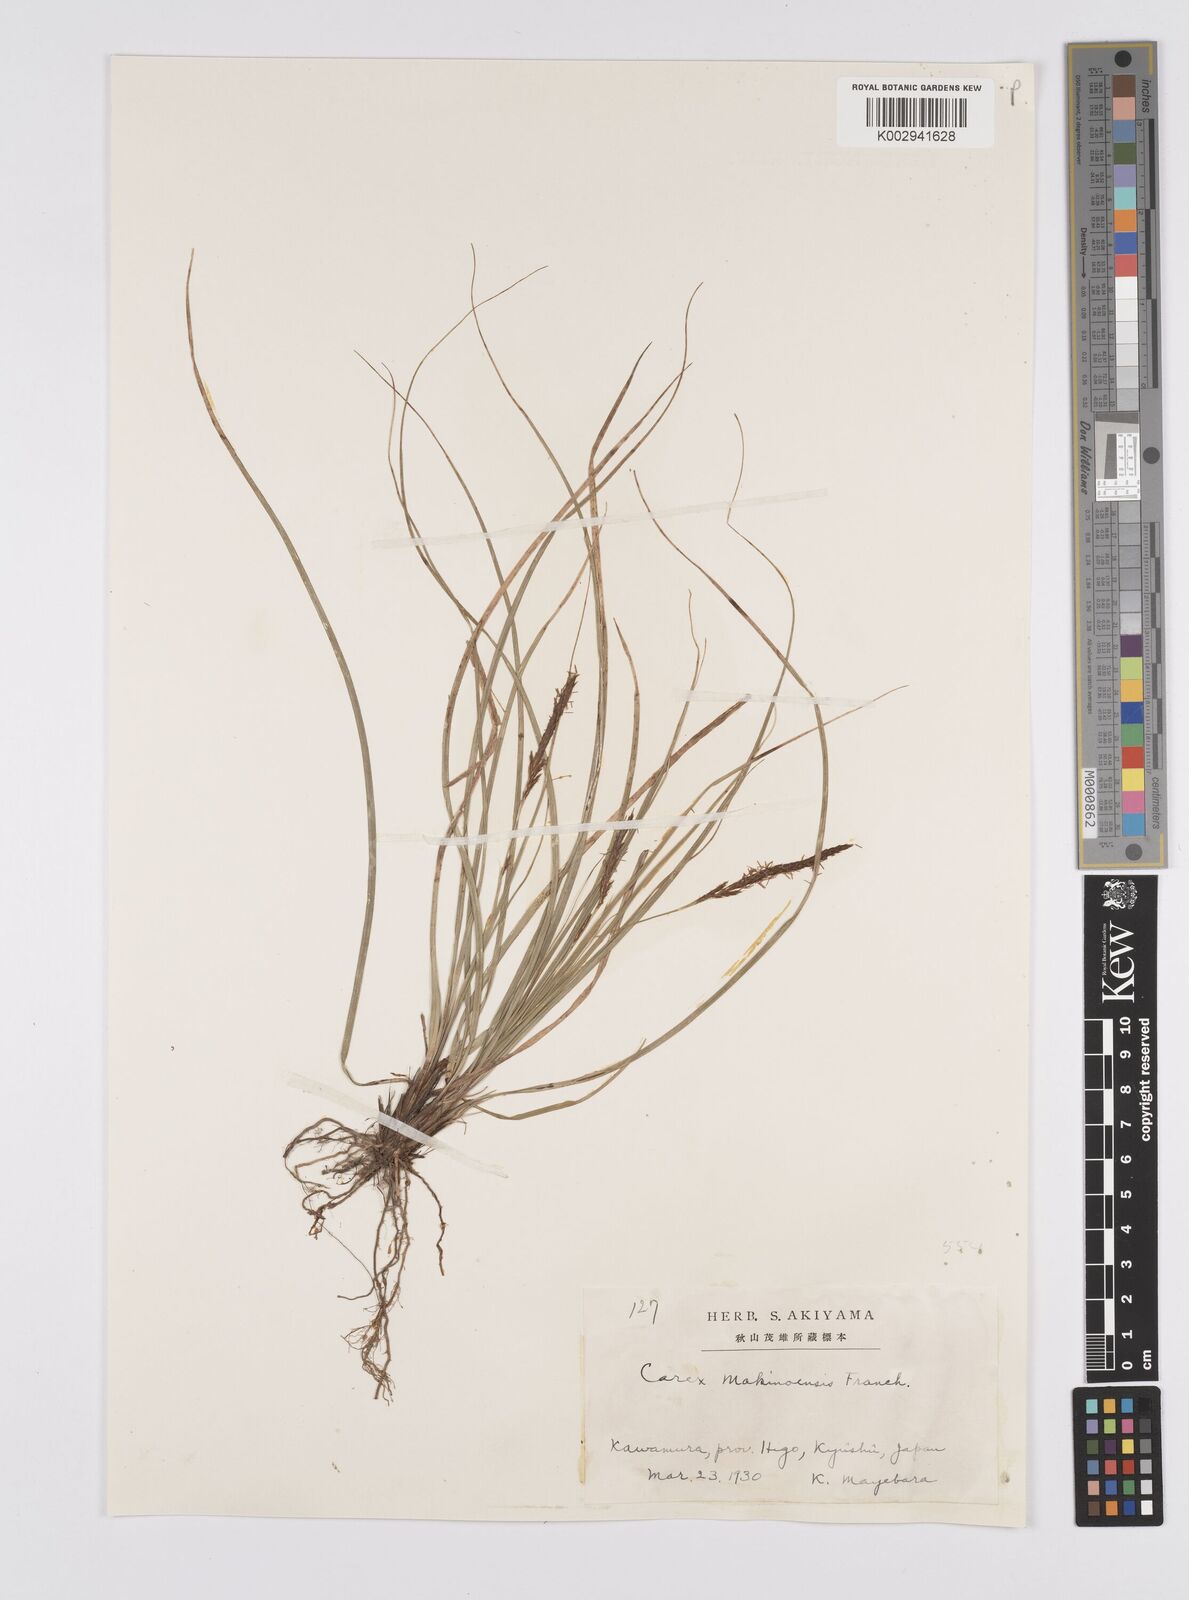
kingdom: Plantae
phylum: Tracheophyta
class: Liliopsida
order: Poales
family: Cyperaceae
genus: Carex
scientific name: Carex chrysolepis
